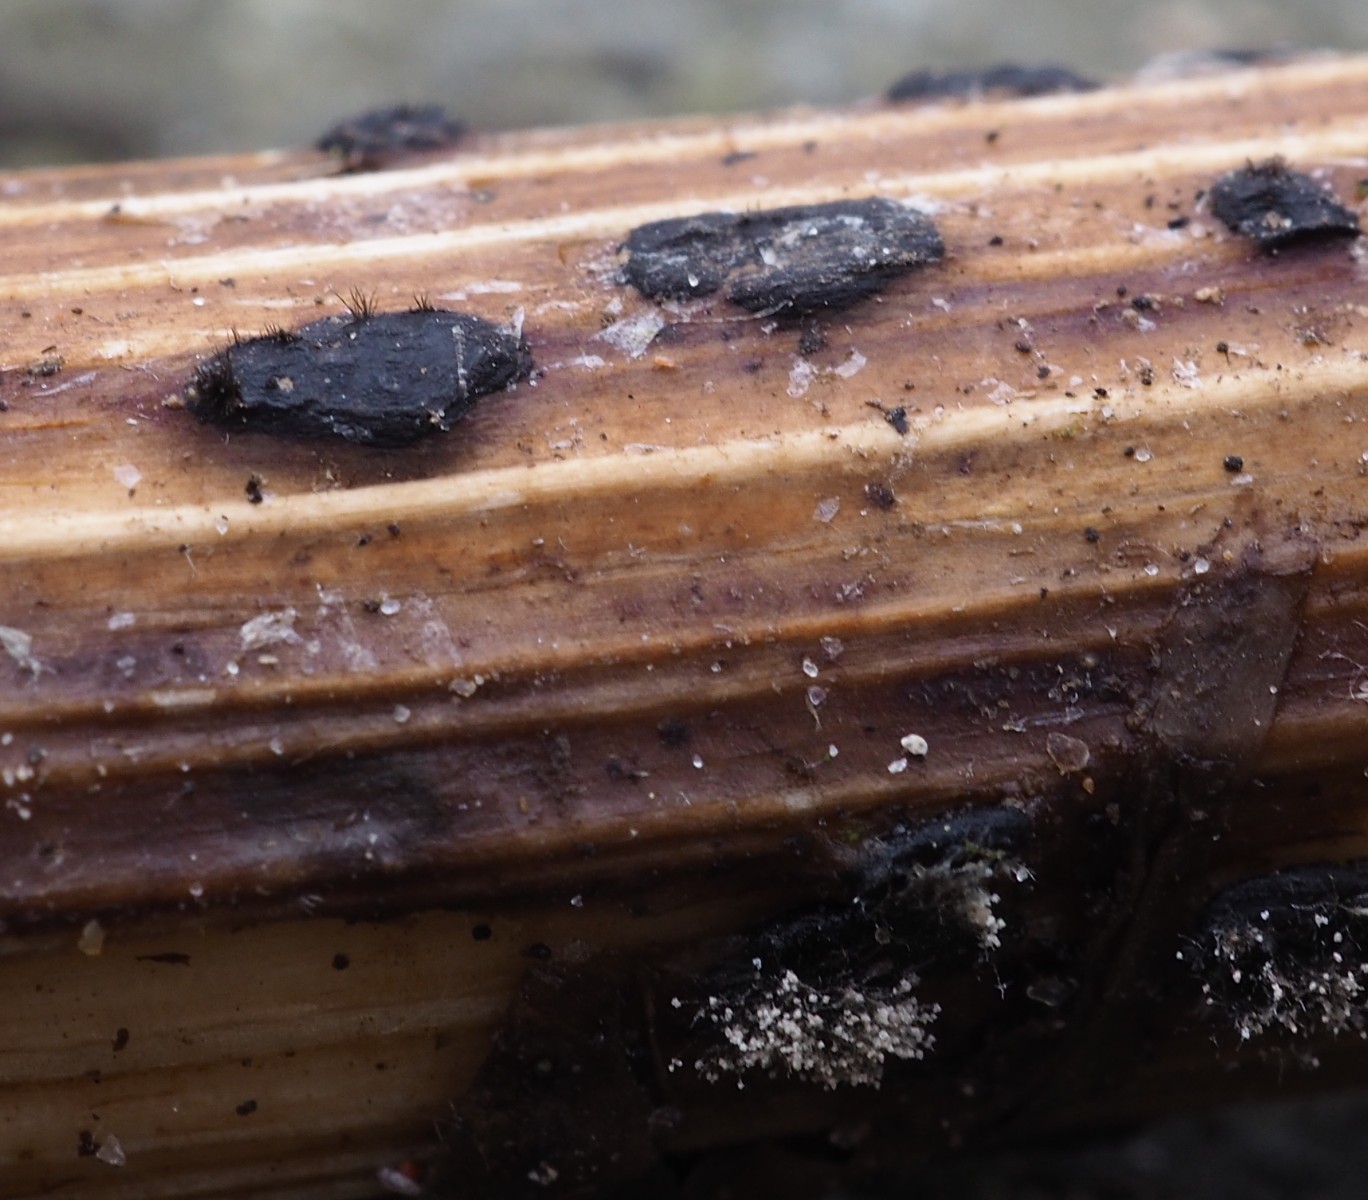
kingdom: Fungi
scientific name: Fungi
